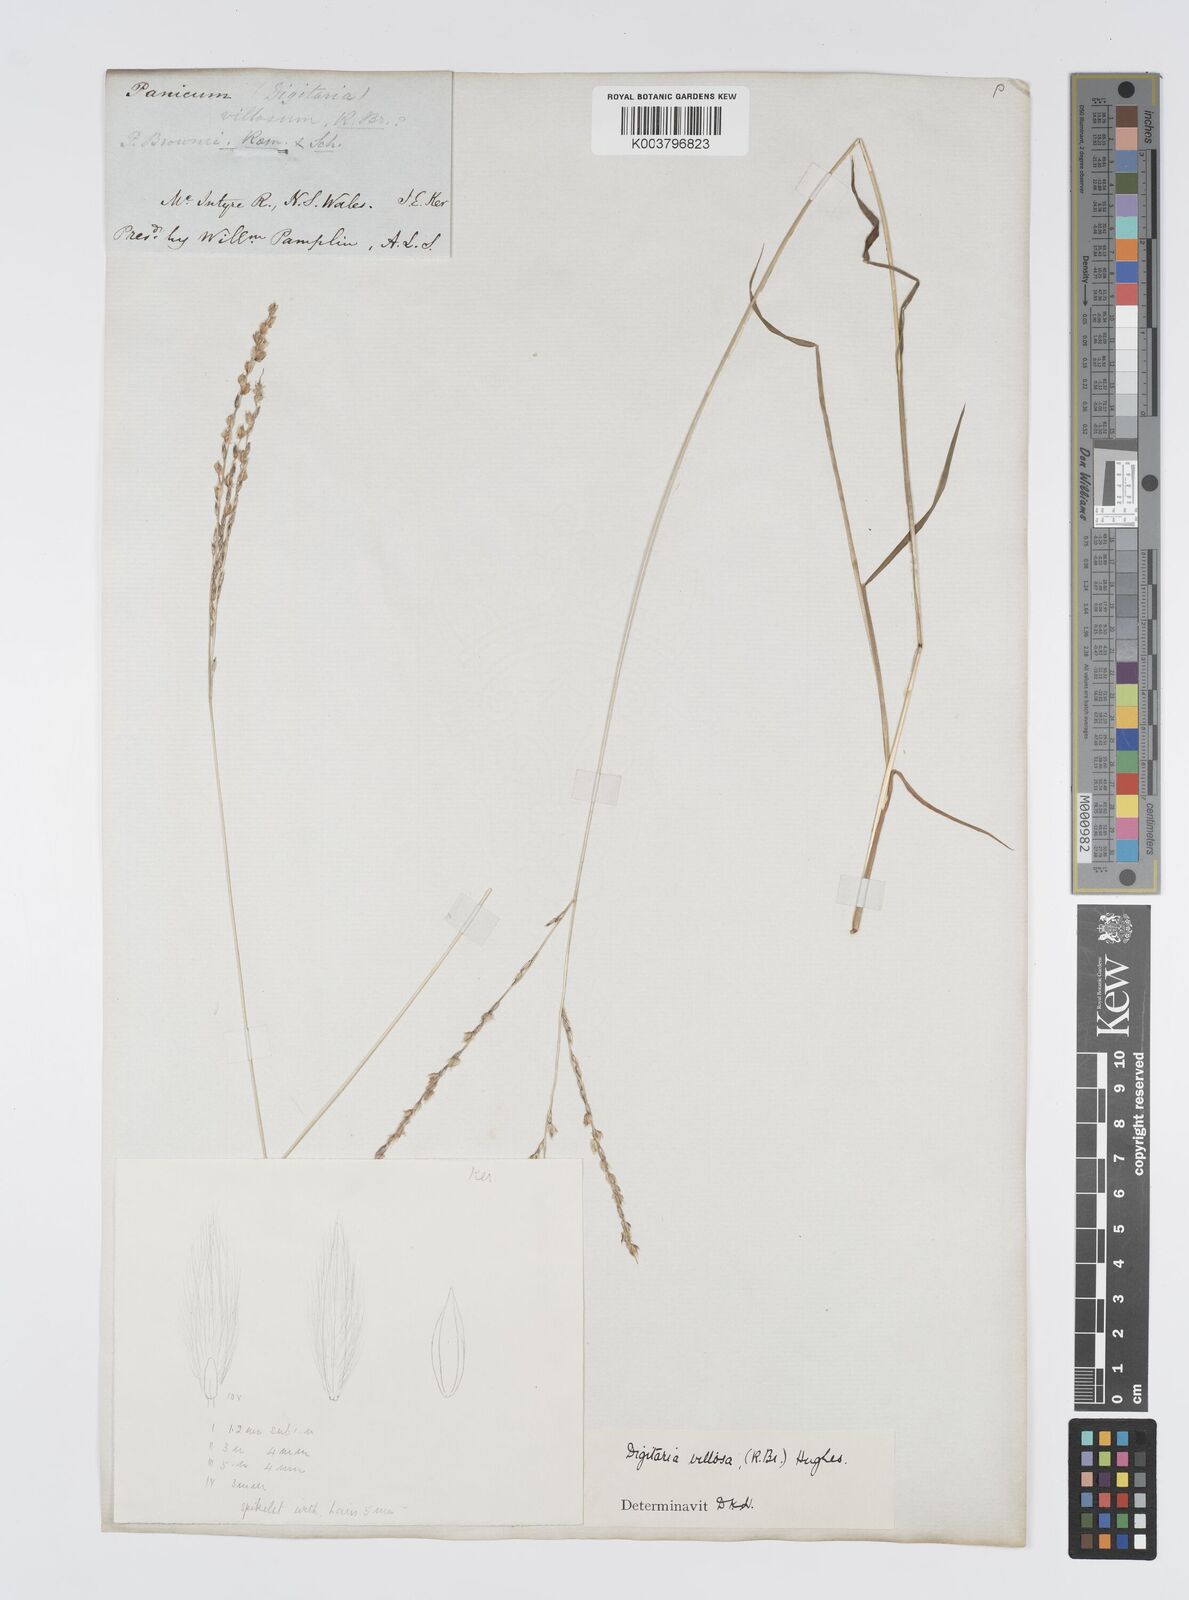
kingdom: Plantae
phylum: Tracheophyta
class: Liliopsida
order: Poales
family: Poaceae
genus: Digitaria
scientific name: Digitaria brownii
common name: Cotton grass
